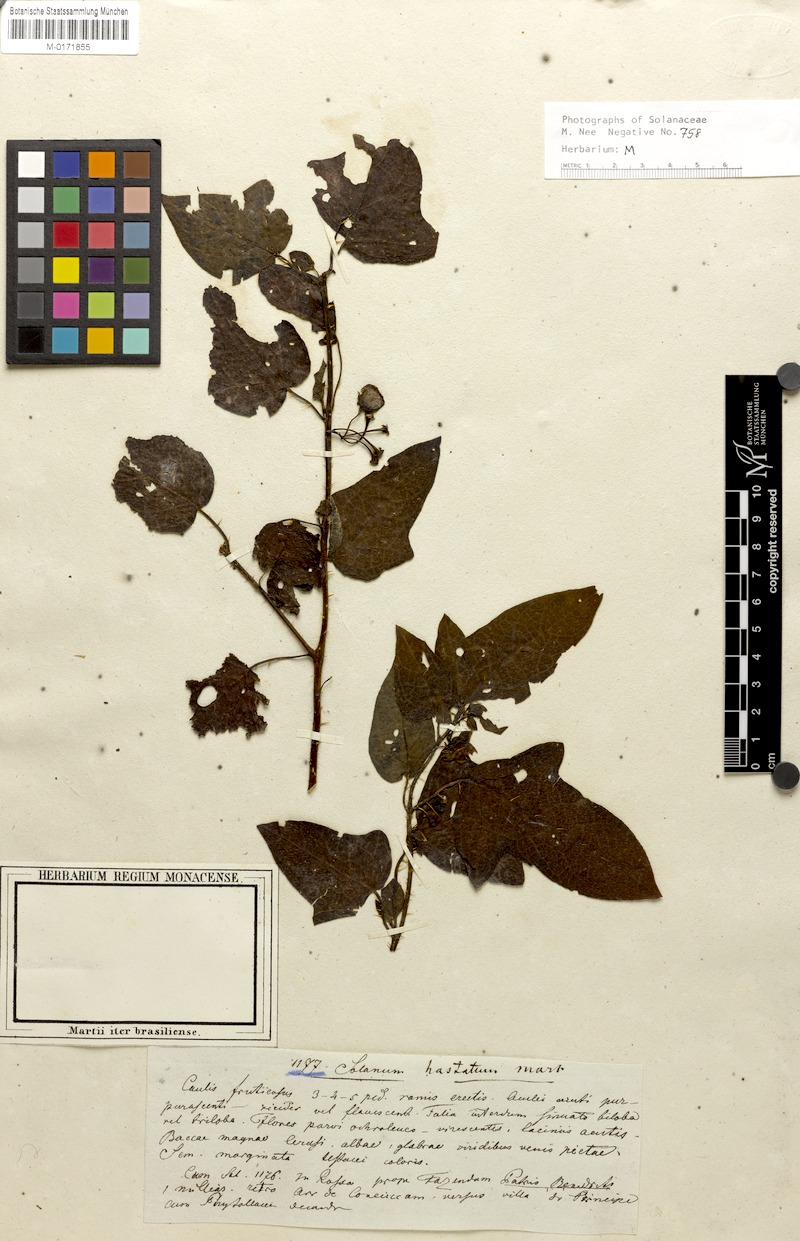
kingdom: Plantae
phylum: Tracheophyta
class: Magnoliopsida
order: Solanales
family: Solanaceae
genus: Solanum
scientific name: Solanum acerifolium
